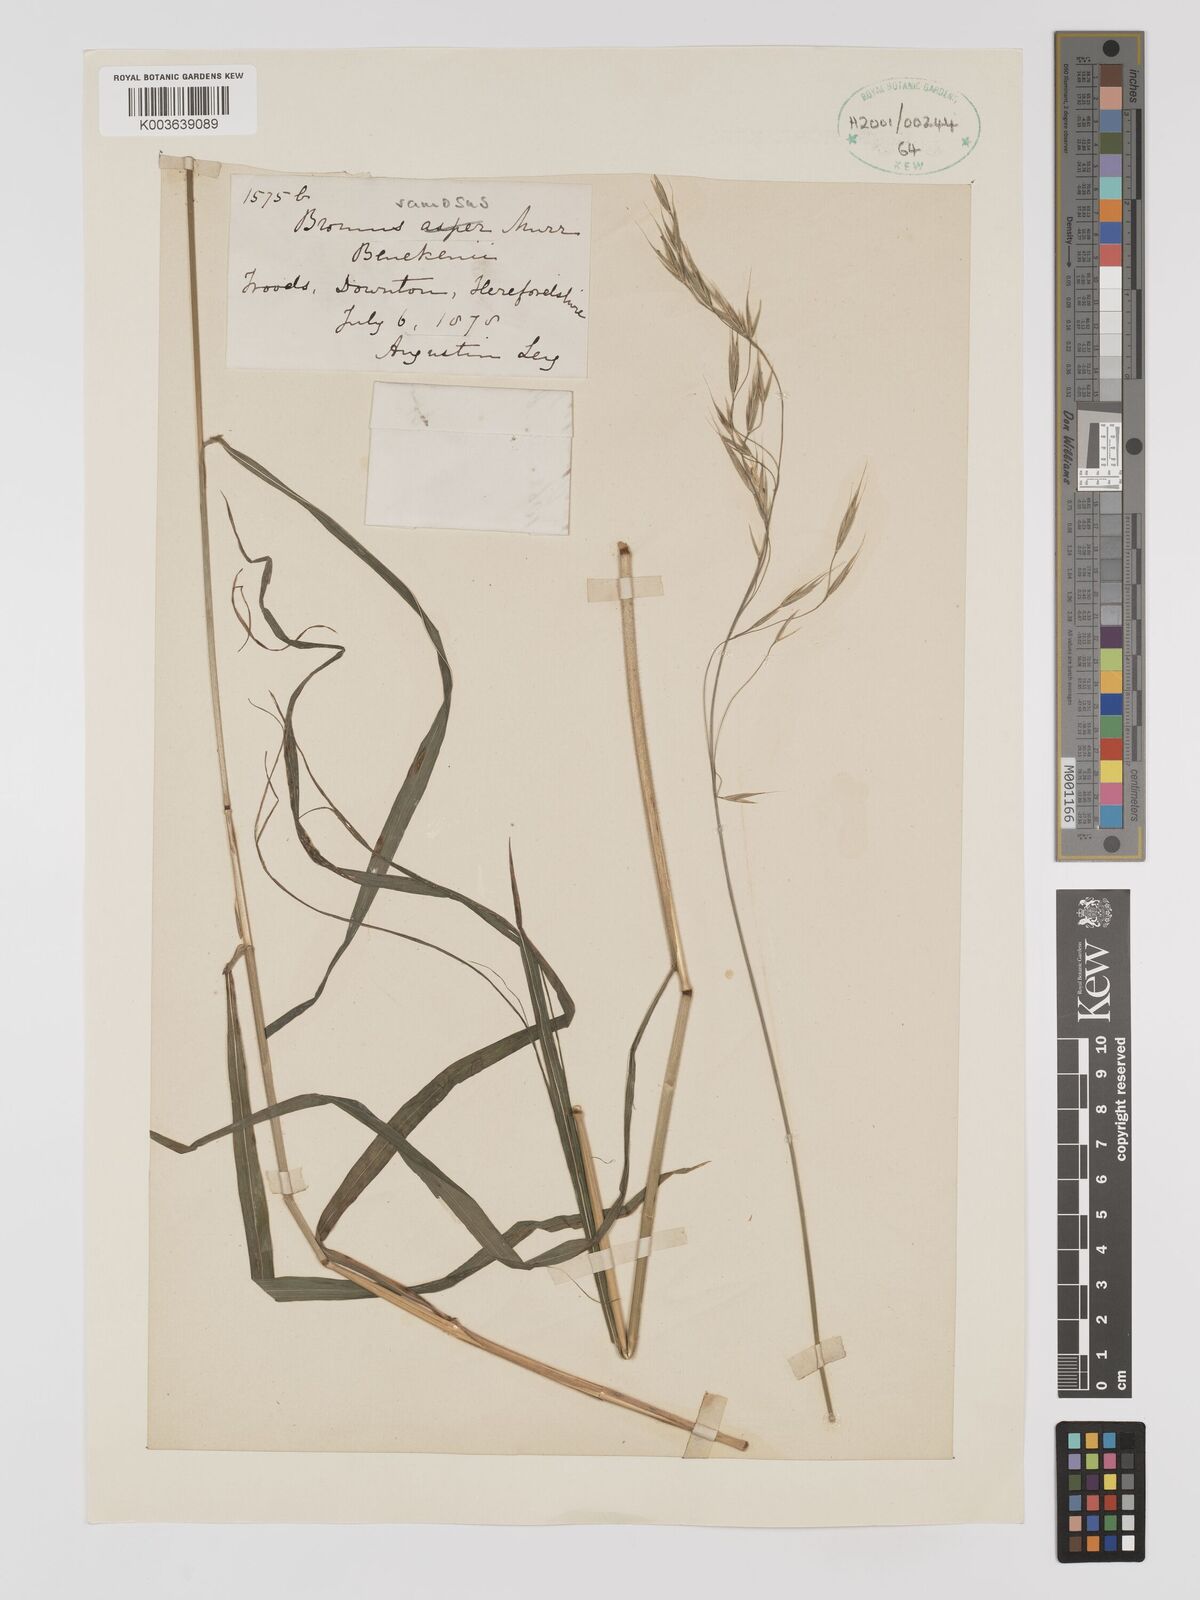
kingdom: Plantae
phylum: Tracheophyta
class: Liliopsida
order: Poales
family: Poaceae
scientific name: Poaceae
